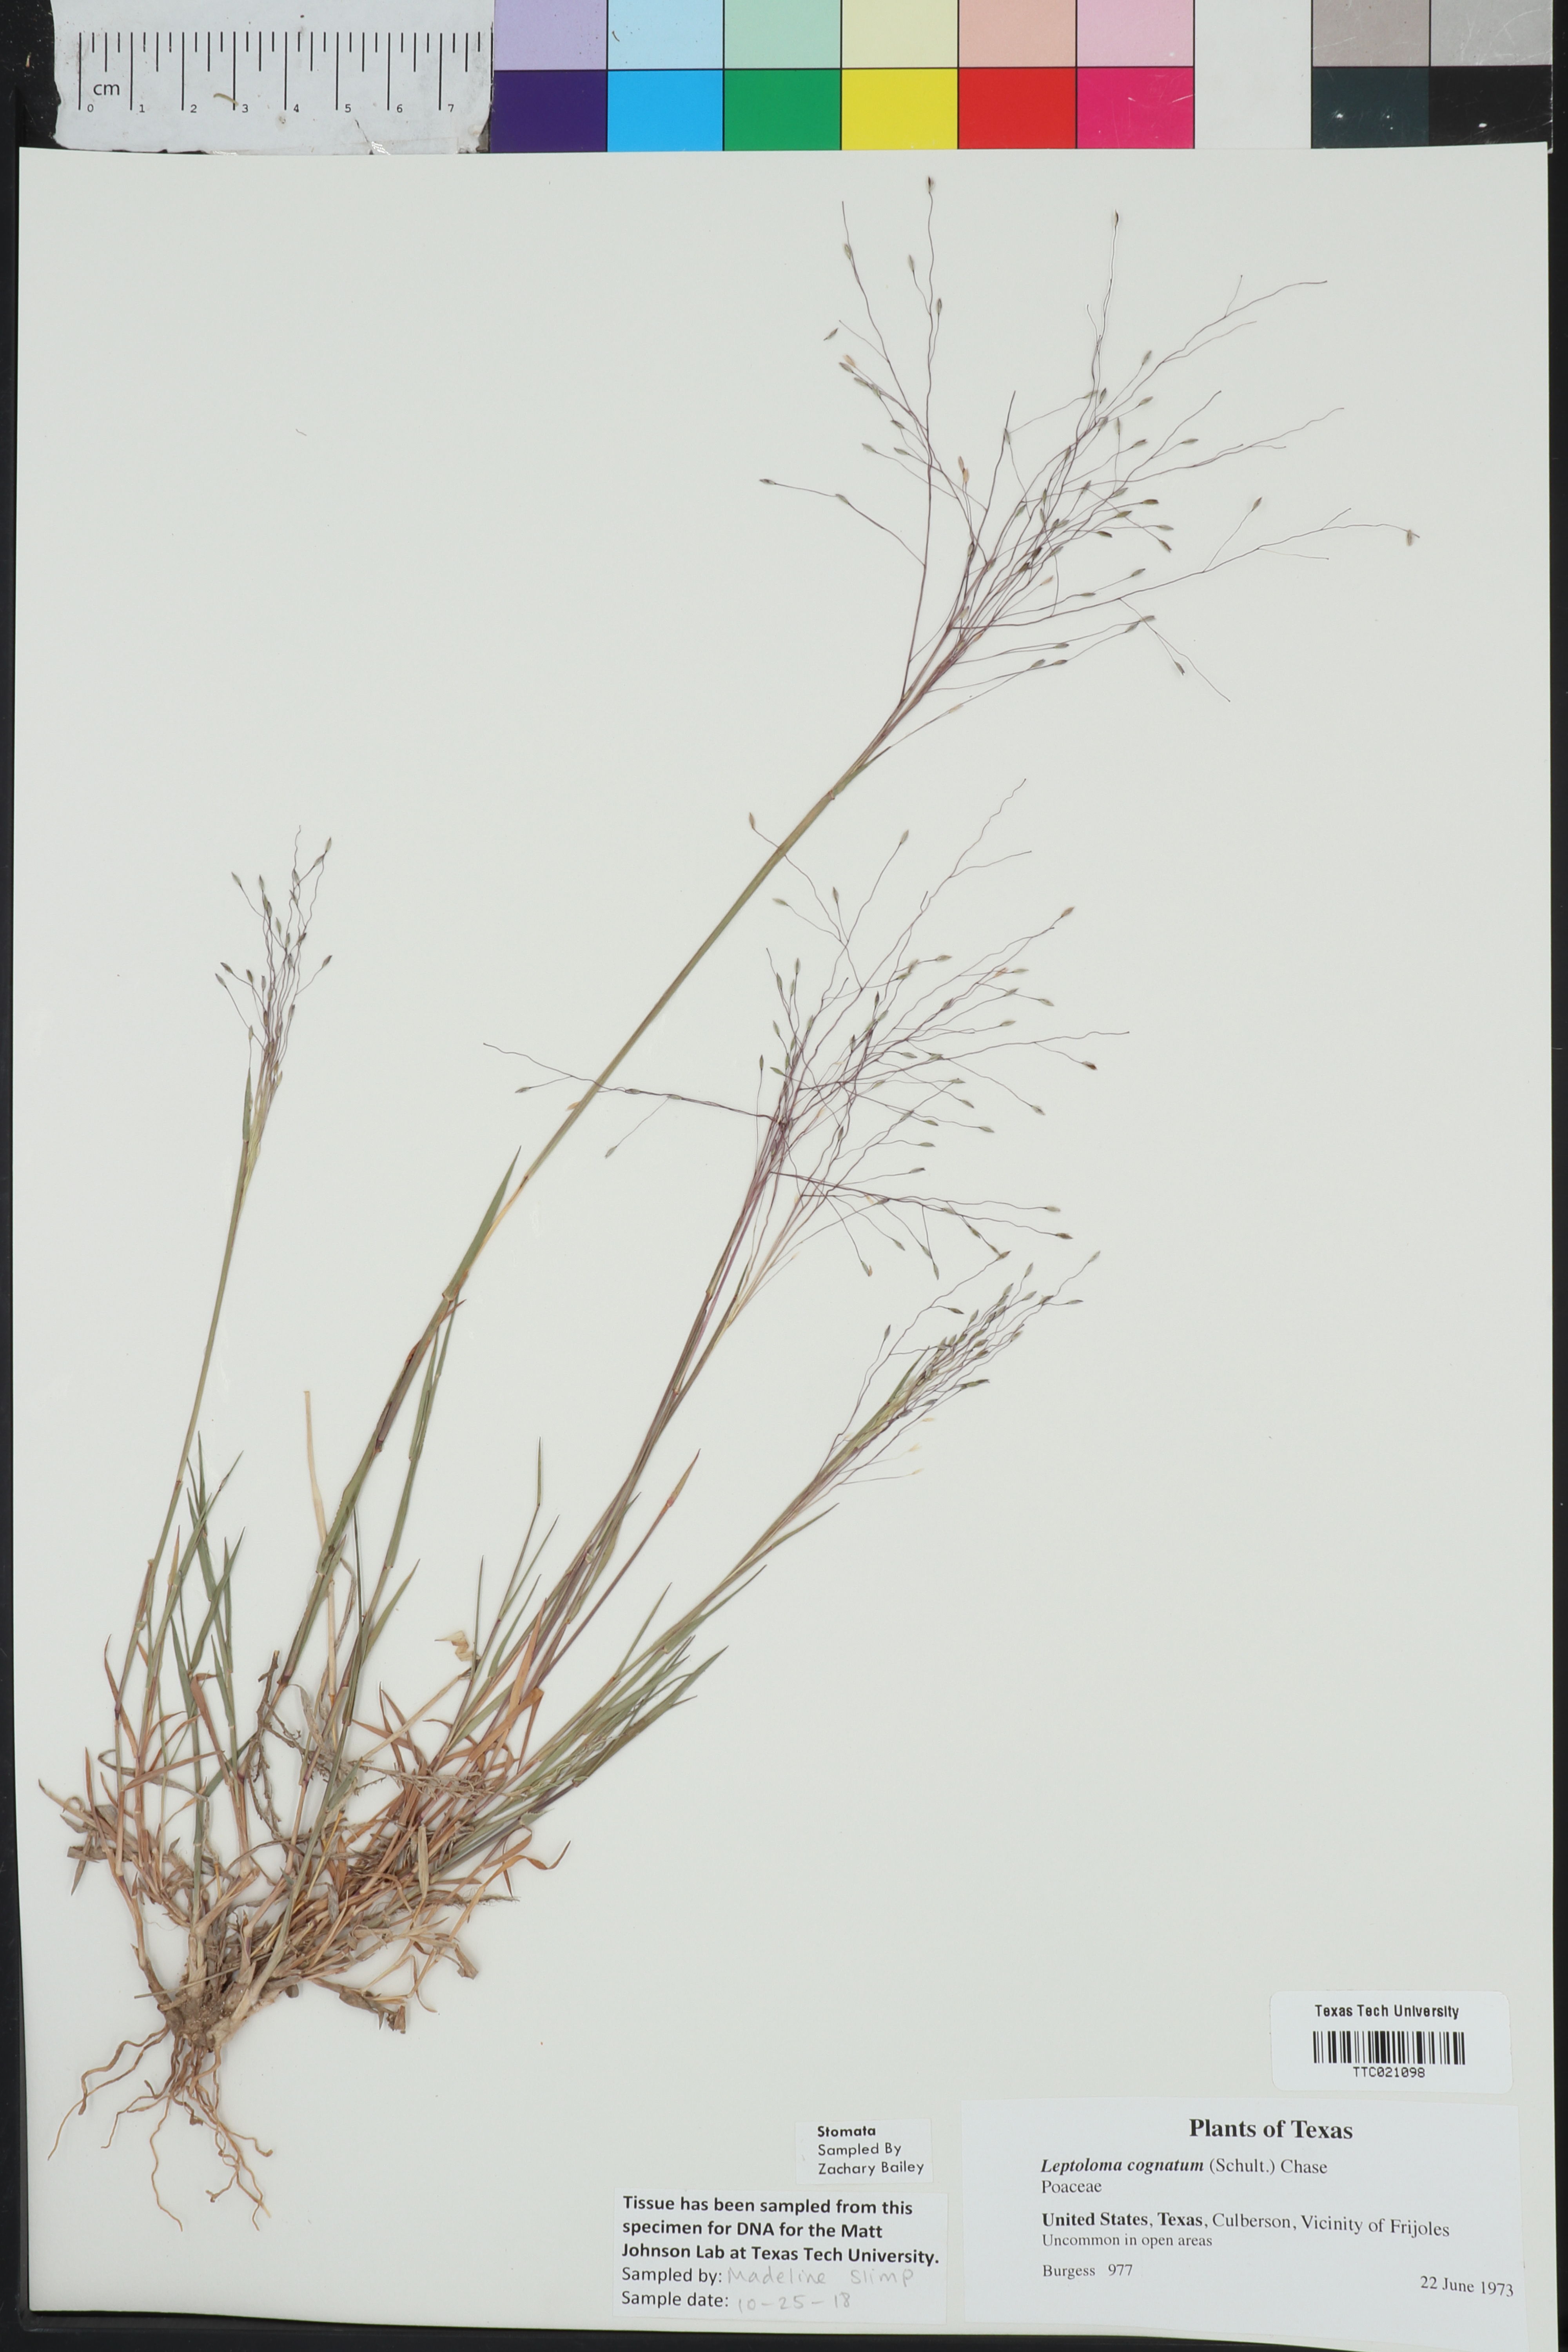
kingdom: Plantae
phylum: Tracheophyta
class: Liliopsida
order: Poales
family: Poaceae
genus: Digitaria
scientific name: Digitaria cognata
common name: Fall witchgrass
